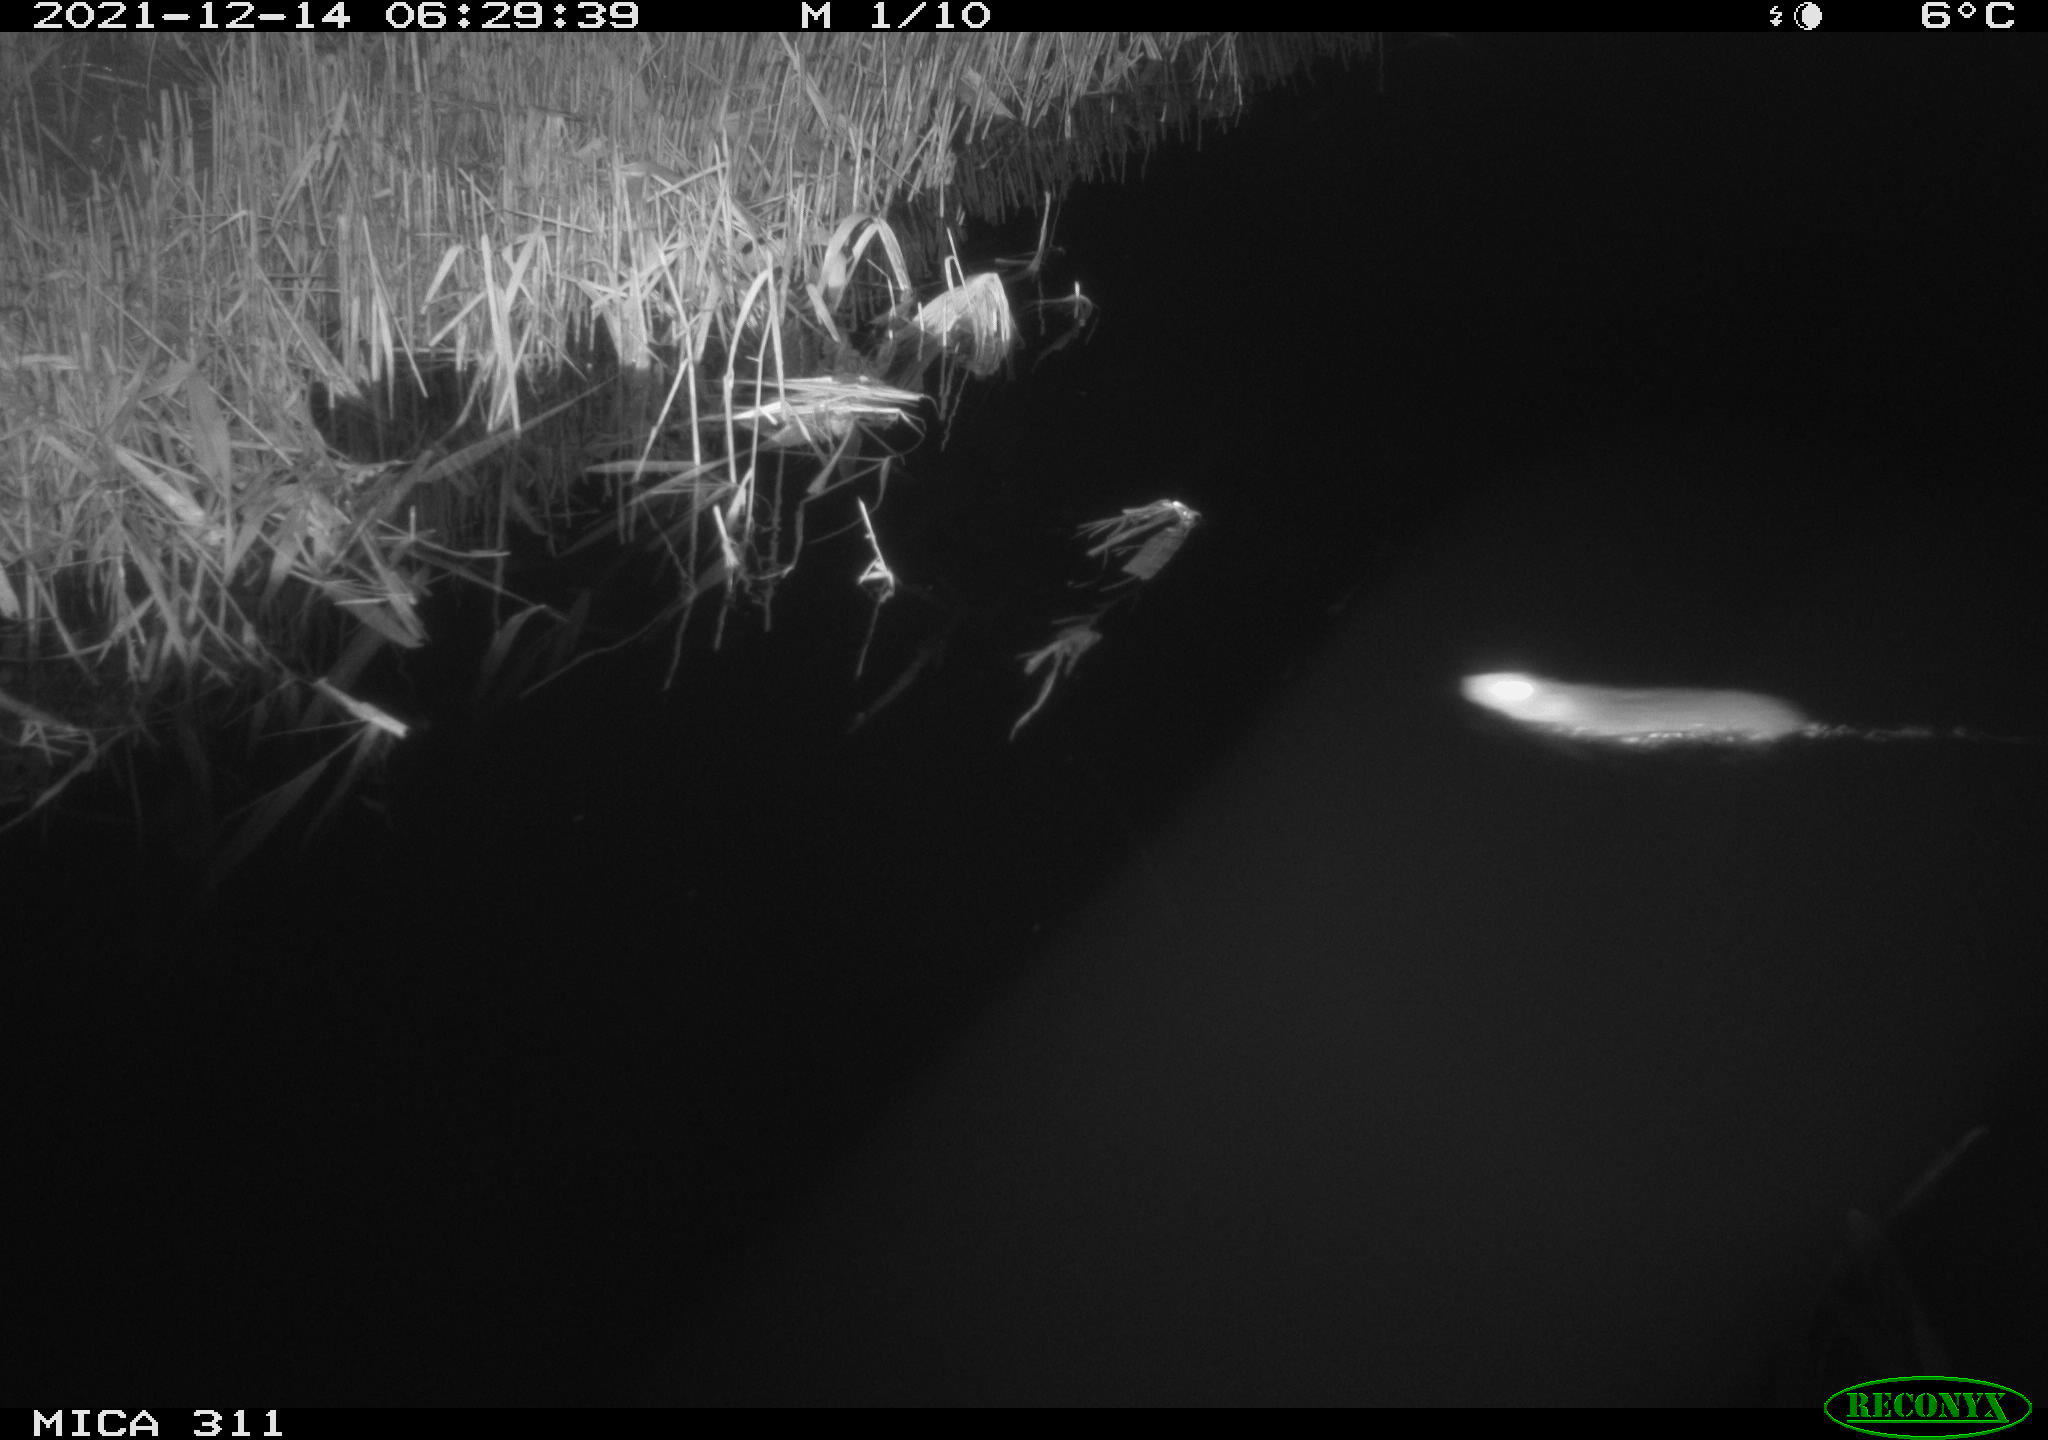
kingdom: Animalia
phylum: Chordata
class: Mammalia
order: Rodentia
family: Muridae
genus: Rattus
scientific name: Rattus norvegicus
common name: Brown rat
